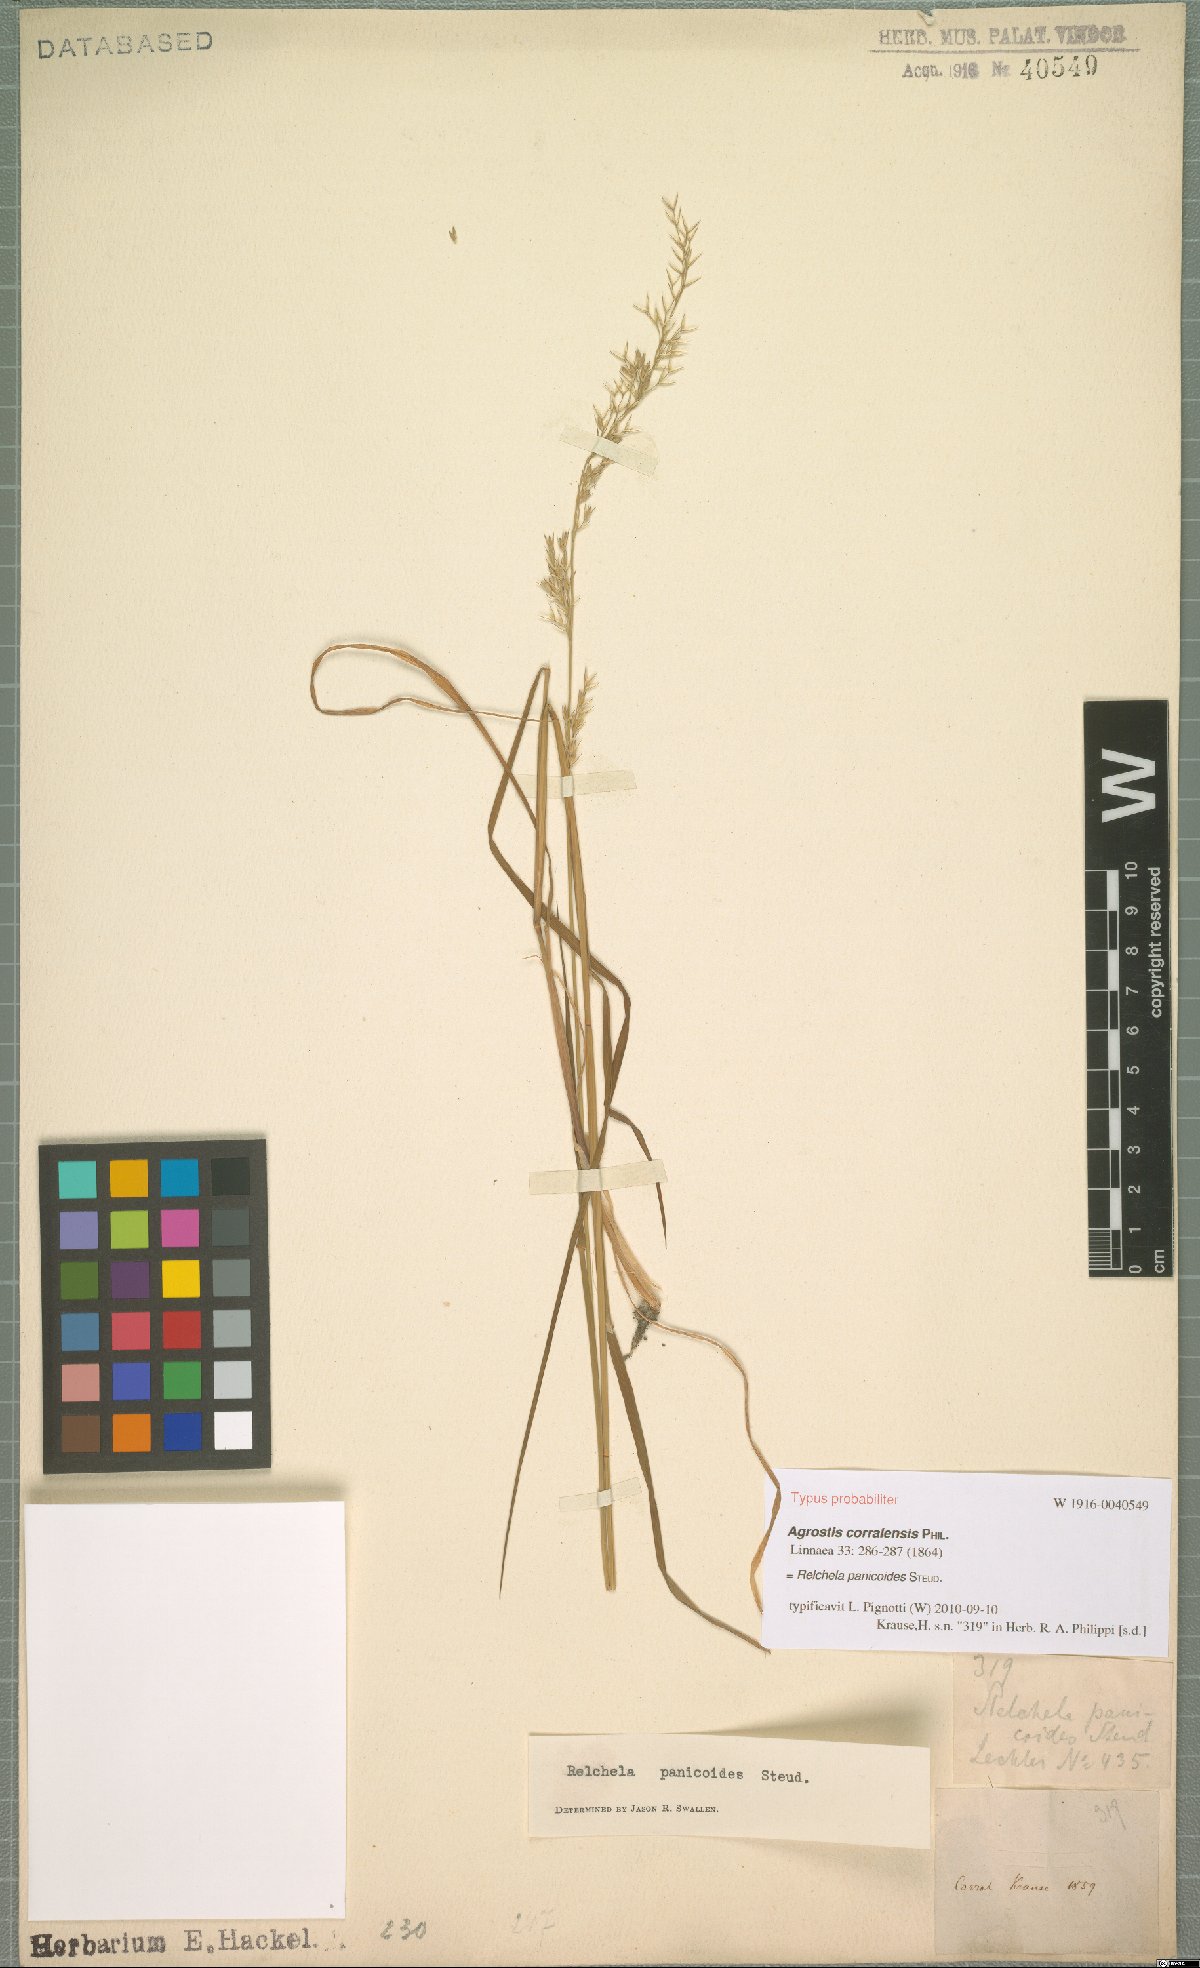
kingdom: Plantae
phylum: Tracheophyta
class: Liliopsida
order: Poales
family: Poaceae
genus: Relchela
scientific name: Relchela panicoides
